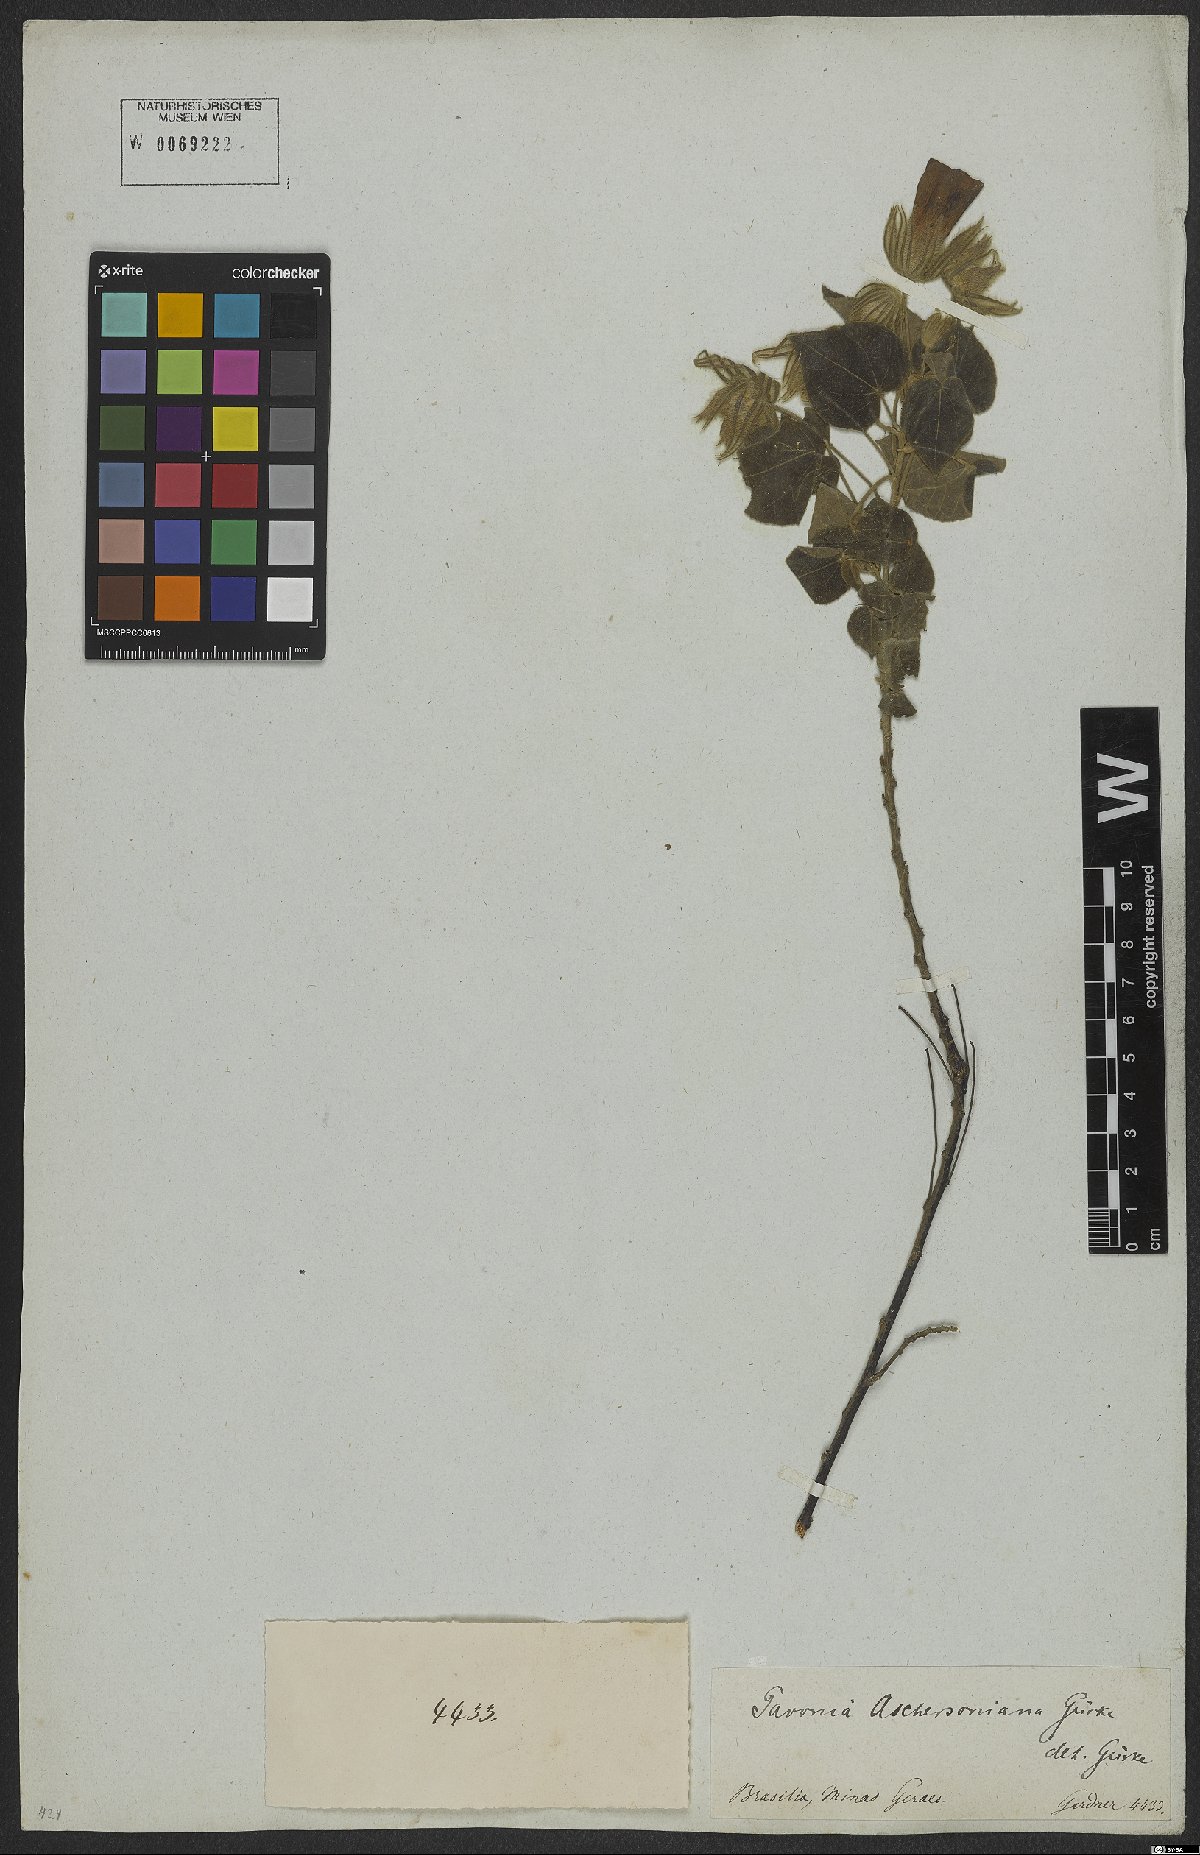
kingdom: Plantae
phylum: Tracheophyta
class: Magnoliopsida
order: Malvales
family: Malvaceae
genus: Pavonia
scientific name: Pavonia aschersoniana
